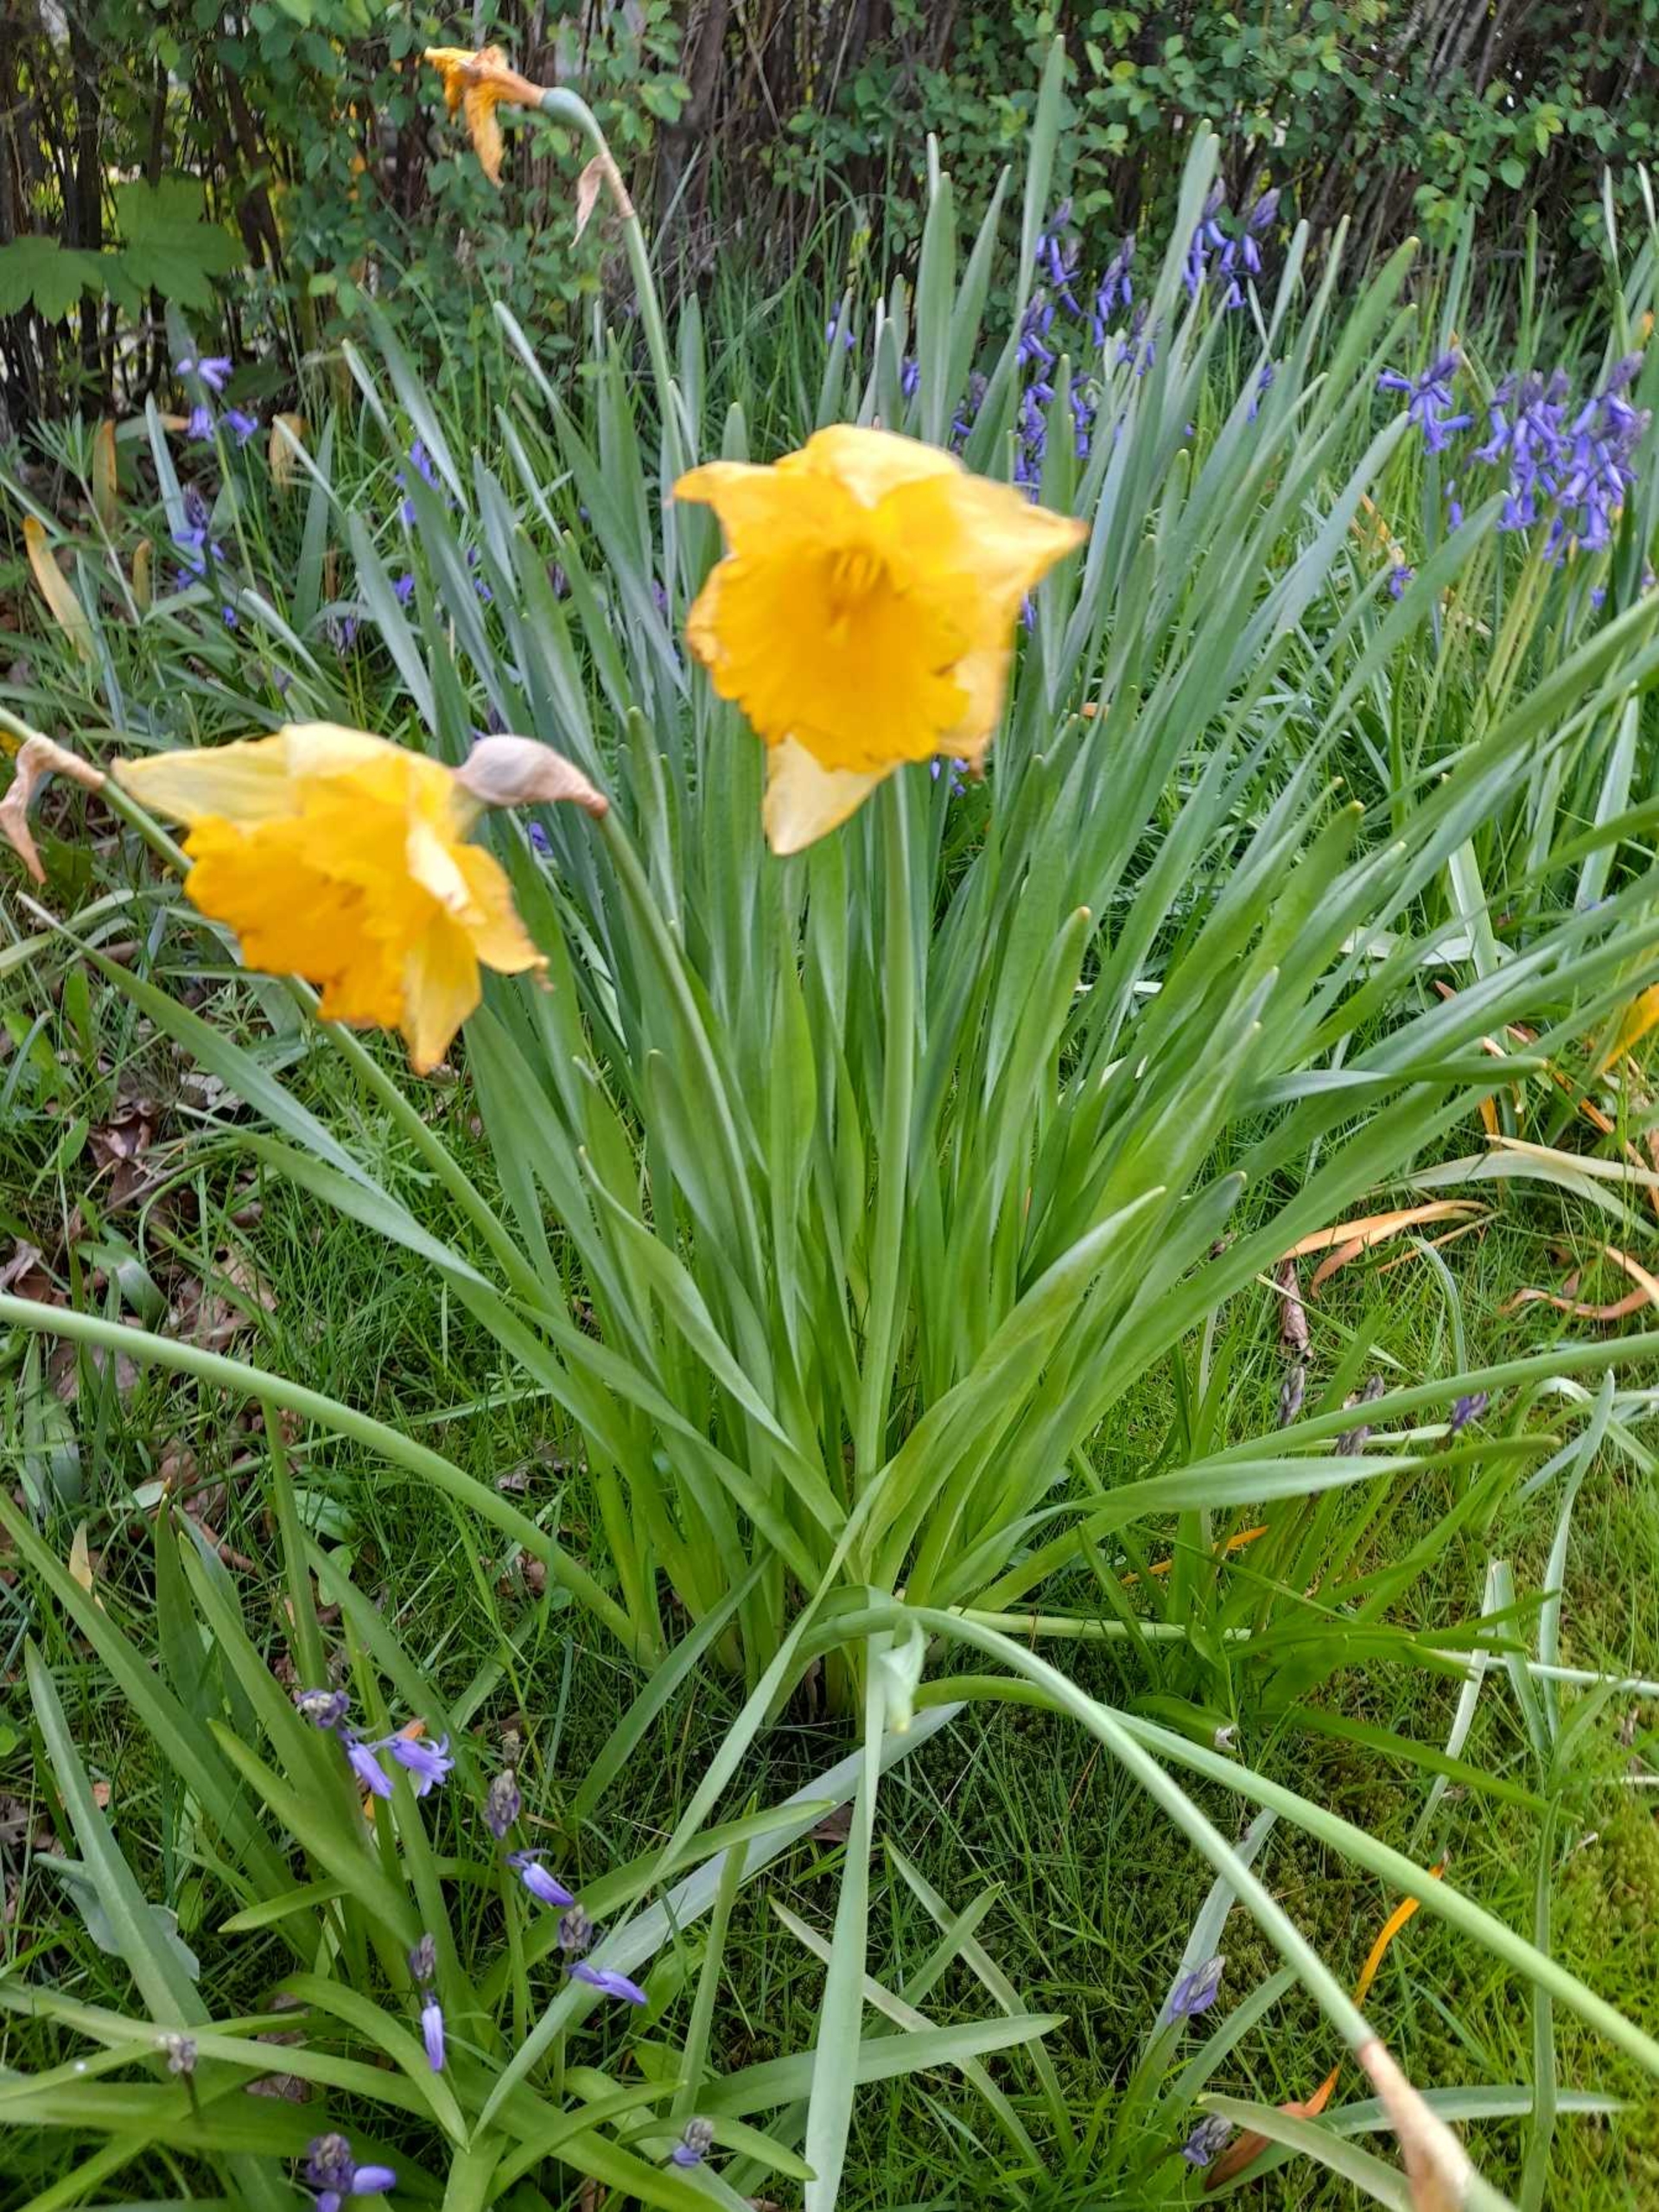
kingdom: Plantae
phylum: Tracheophyta
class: Liliopsida
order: Asparagales
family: Amaryllidaceae
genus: Narcissus
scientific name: Narcissus pseudonarcissus
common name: Påskelilje
